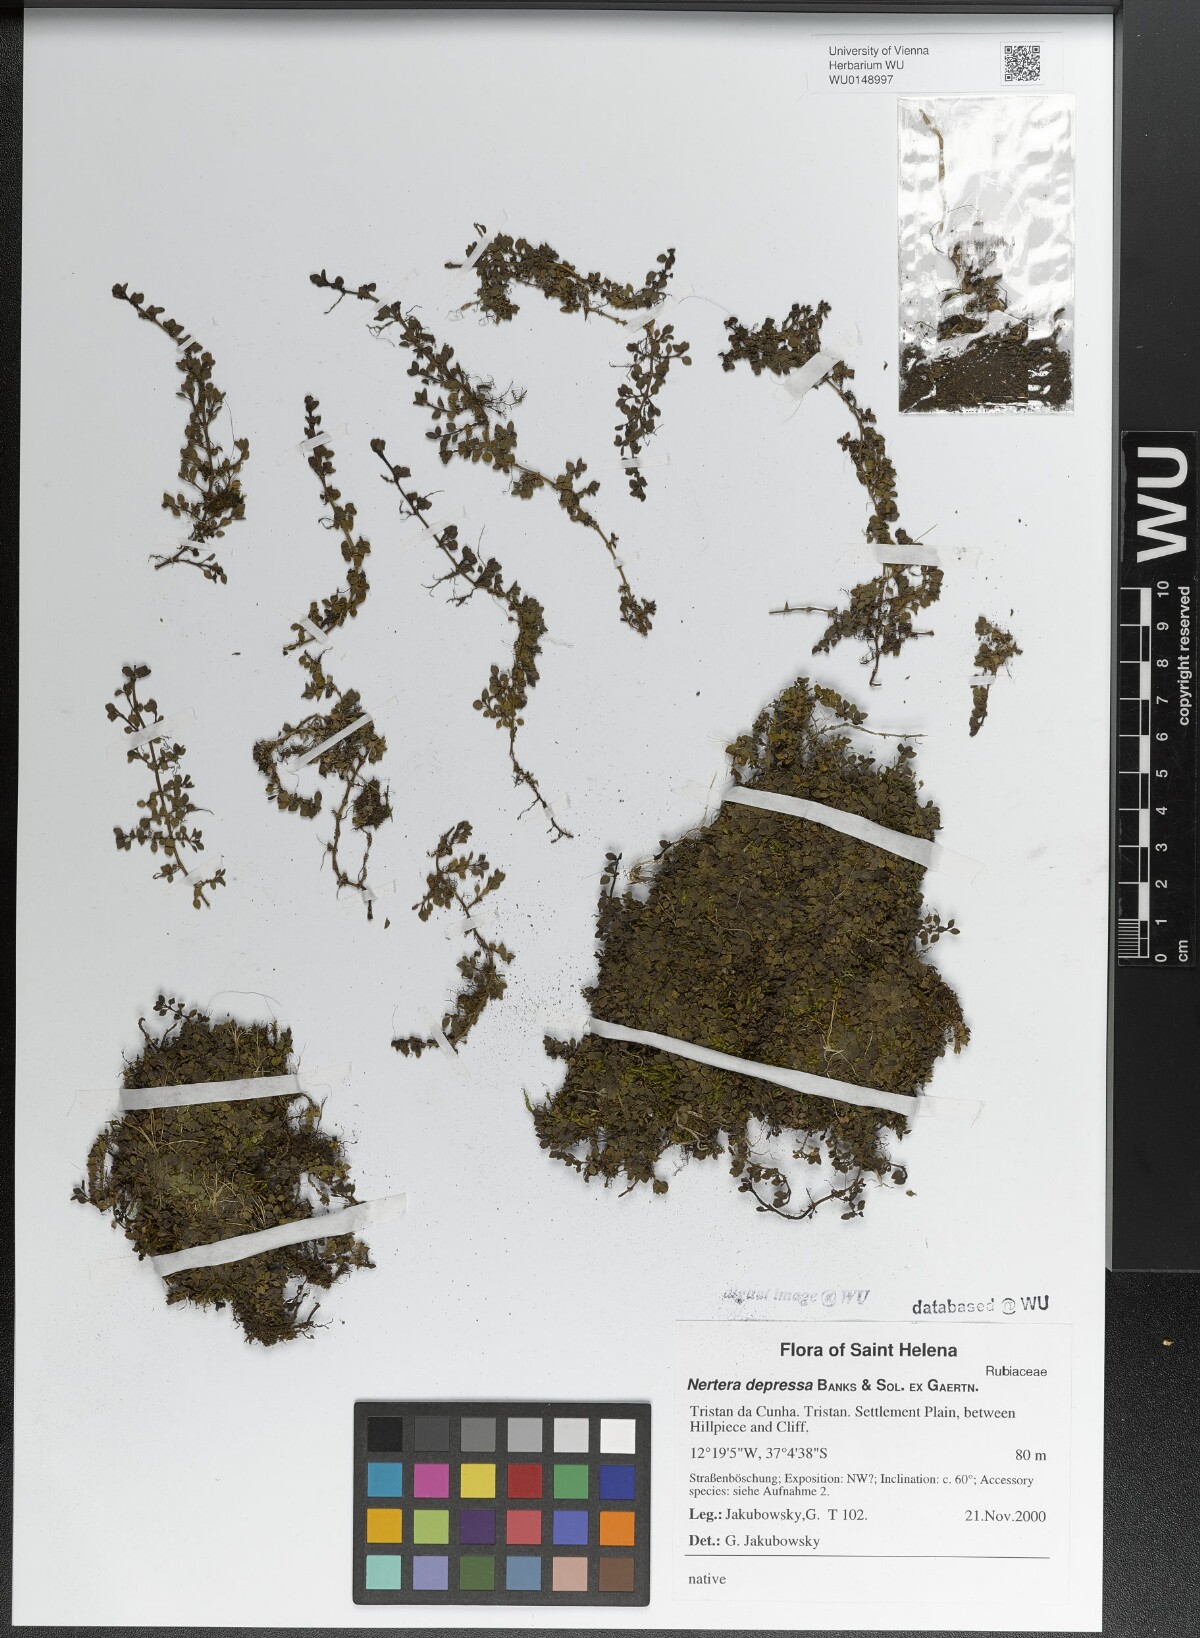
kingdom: Plantae
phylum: Tracheophyta
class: Magnoliopsida
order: Gentianales
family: Rubiaceae
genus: Nertera
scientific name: Nertera granadensis
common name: Beadplant
